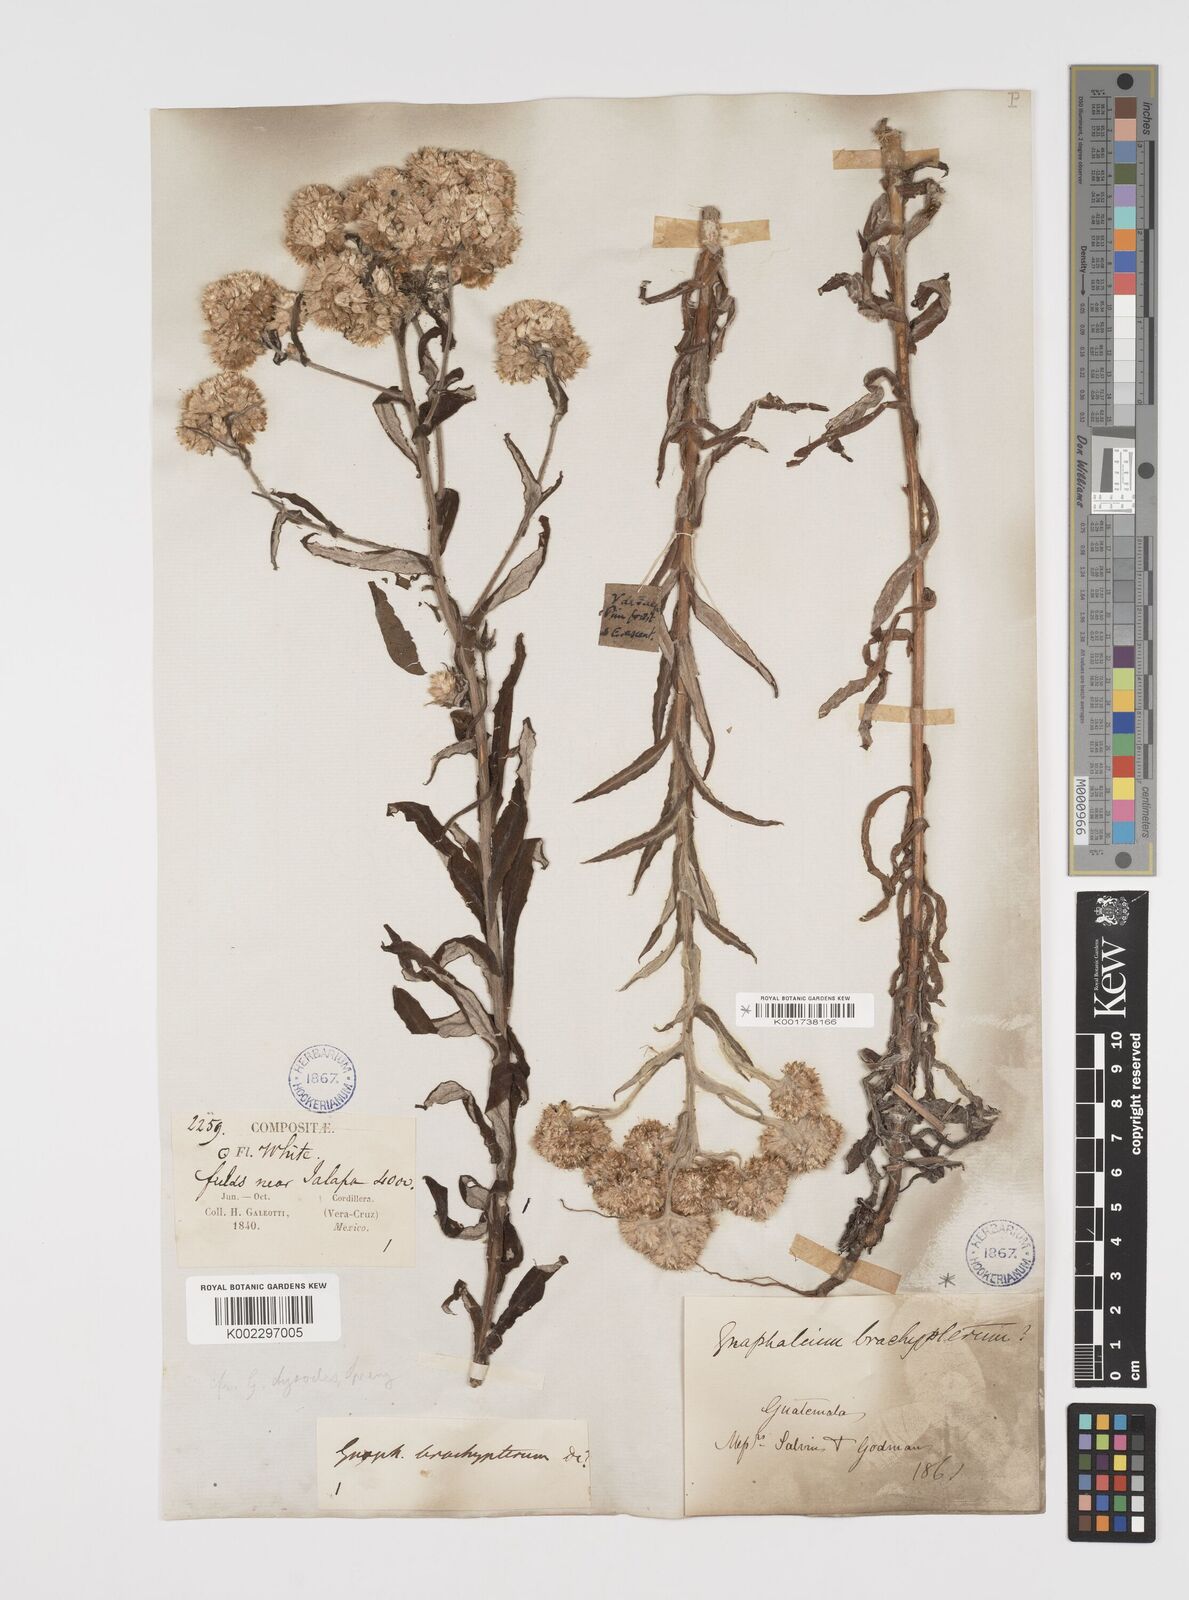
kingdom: Plantae
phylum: Tracheophyta
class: Magnoliopsida
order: Asterales
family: Asteraceae
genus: Pseudognaphalium
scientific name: Pseudognaphalium attenuatum
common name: Tapered cudweed
